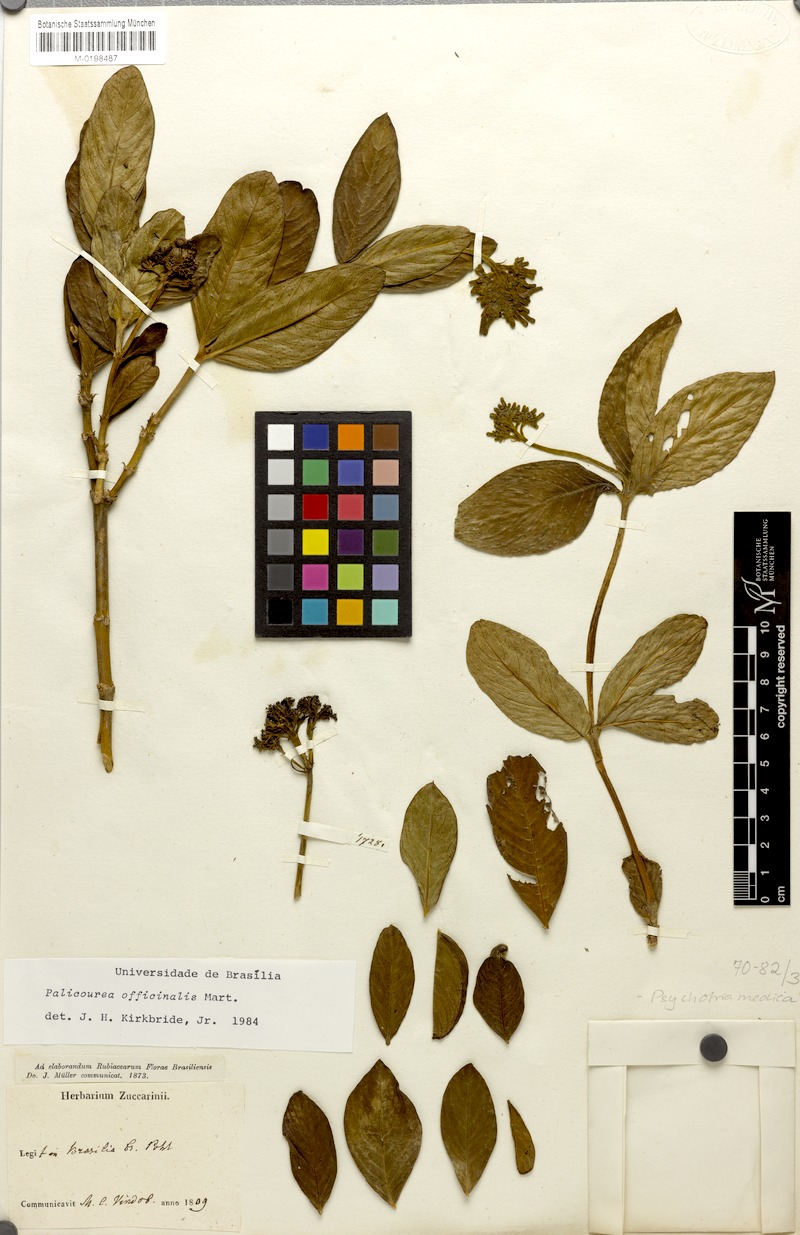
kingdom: Plantae
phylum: Tracheophyta
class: Magnoliopsida
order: Gentianales
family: Rubiaceae
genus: Palicourea
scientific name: Palicourea officinalis
